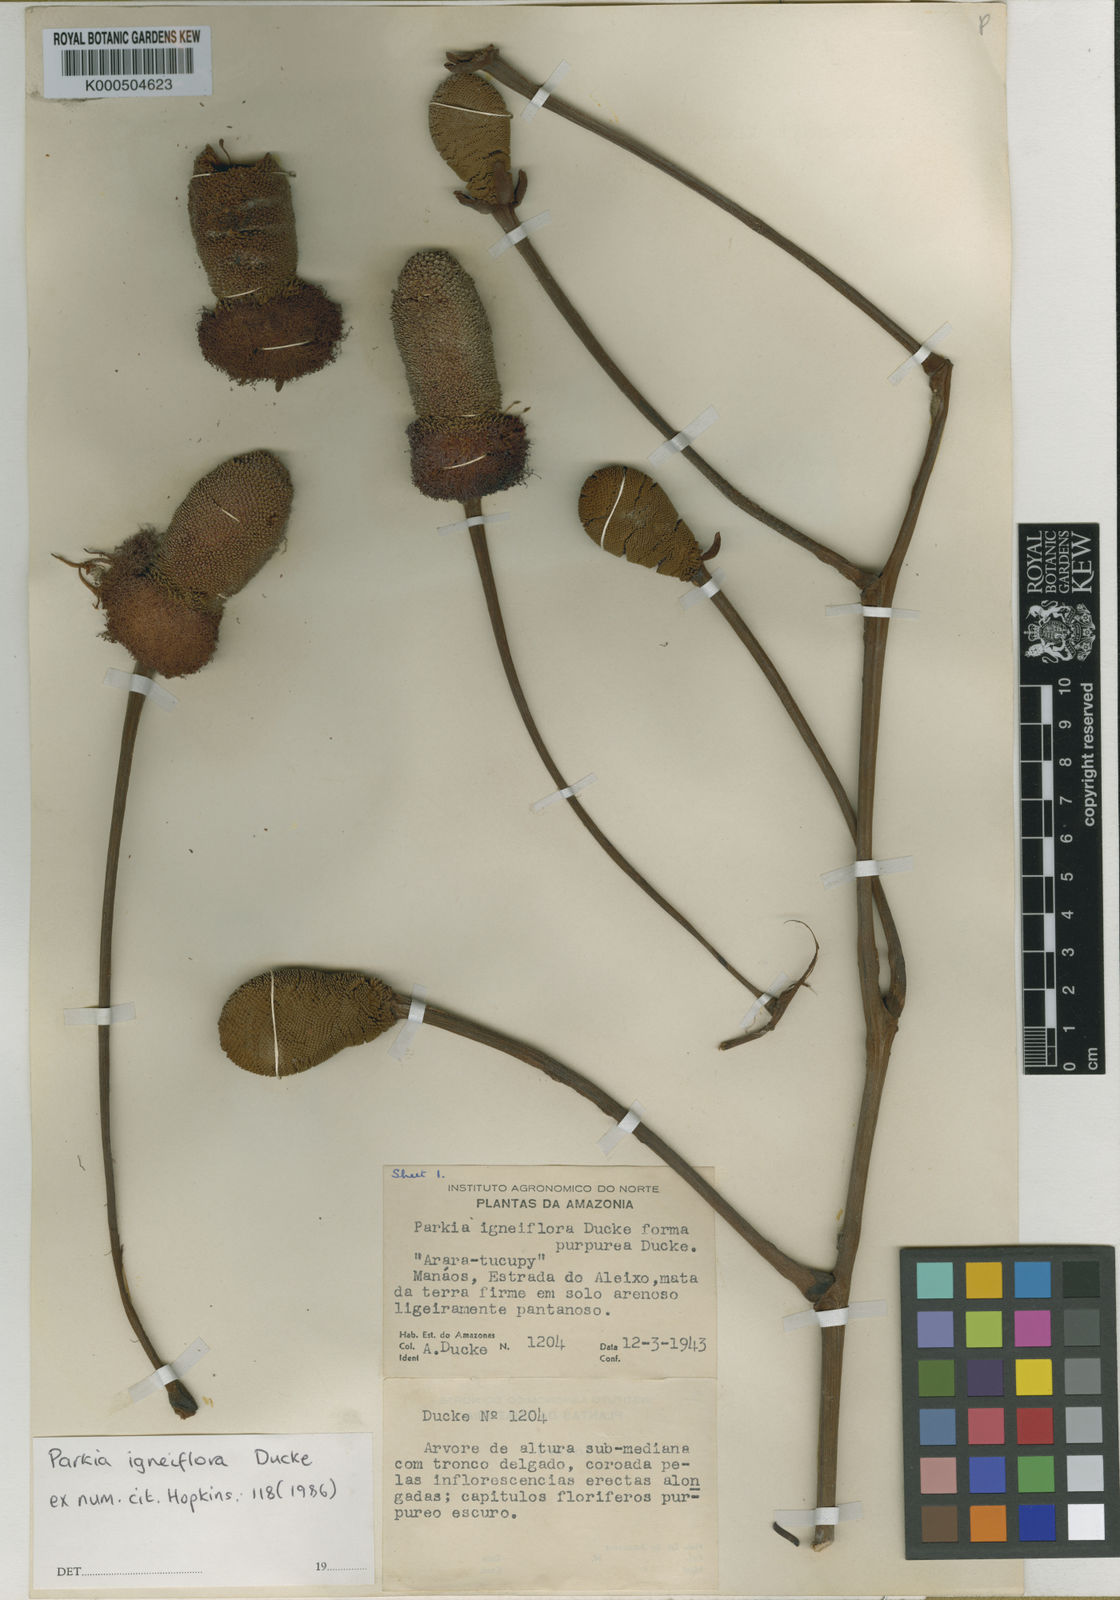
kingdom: Plantae
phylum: Tracheophyta
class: Magnoliopsida
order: Fabales
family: Fabaceae
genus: Parkia
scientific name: Parkia igneiflora
